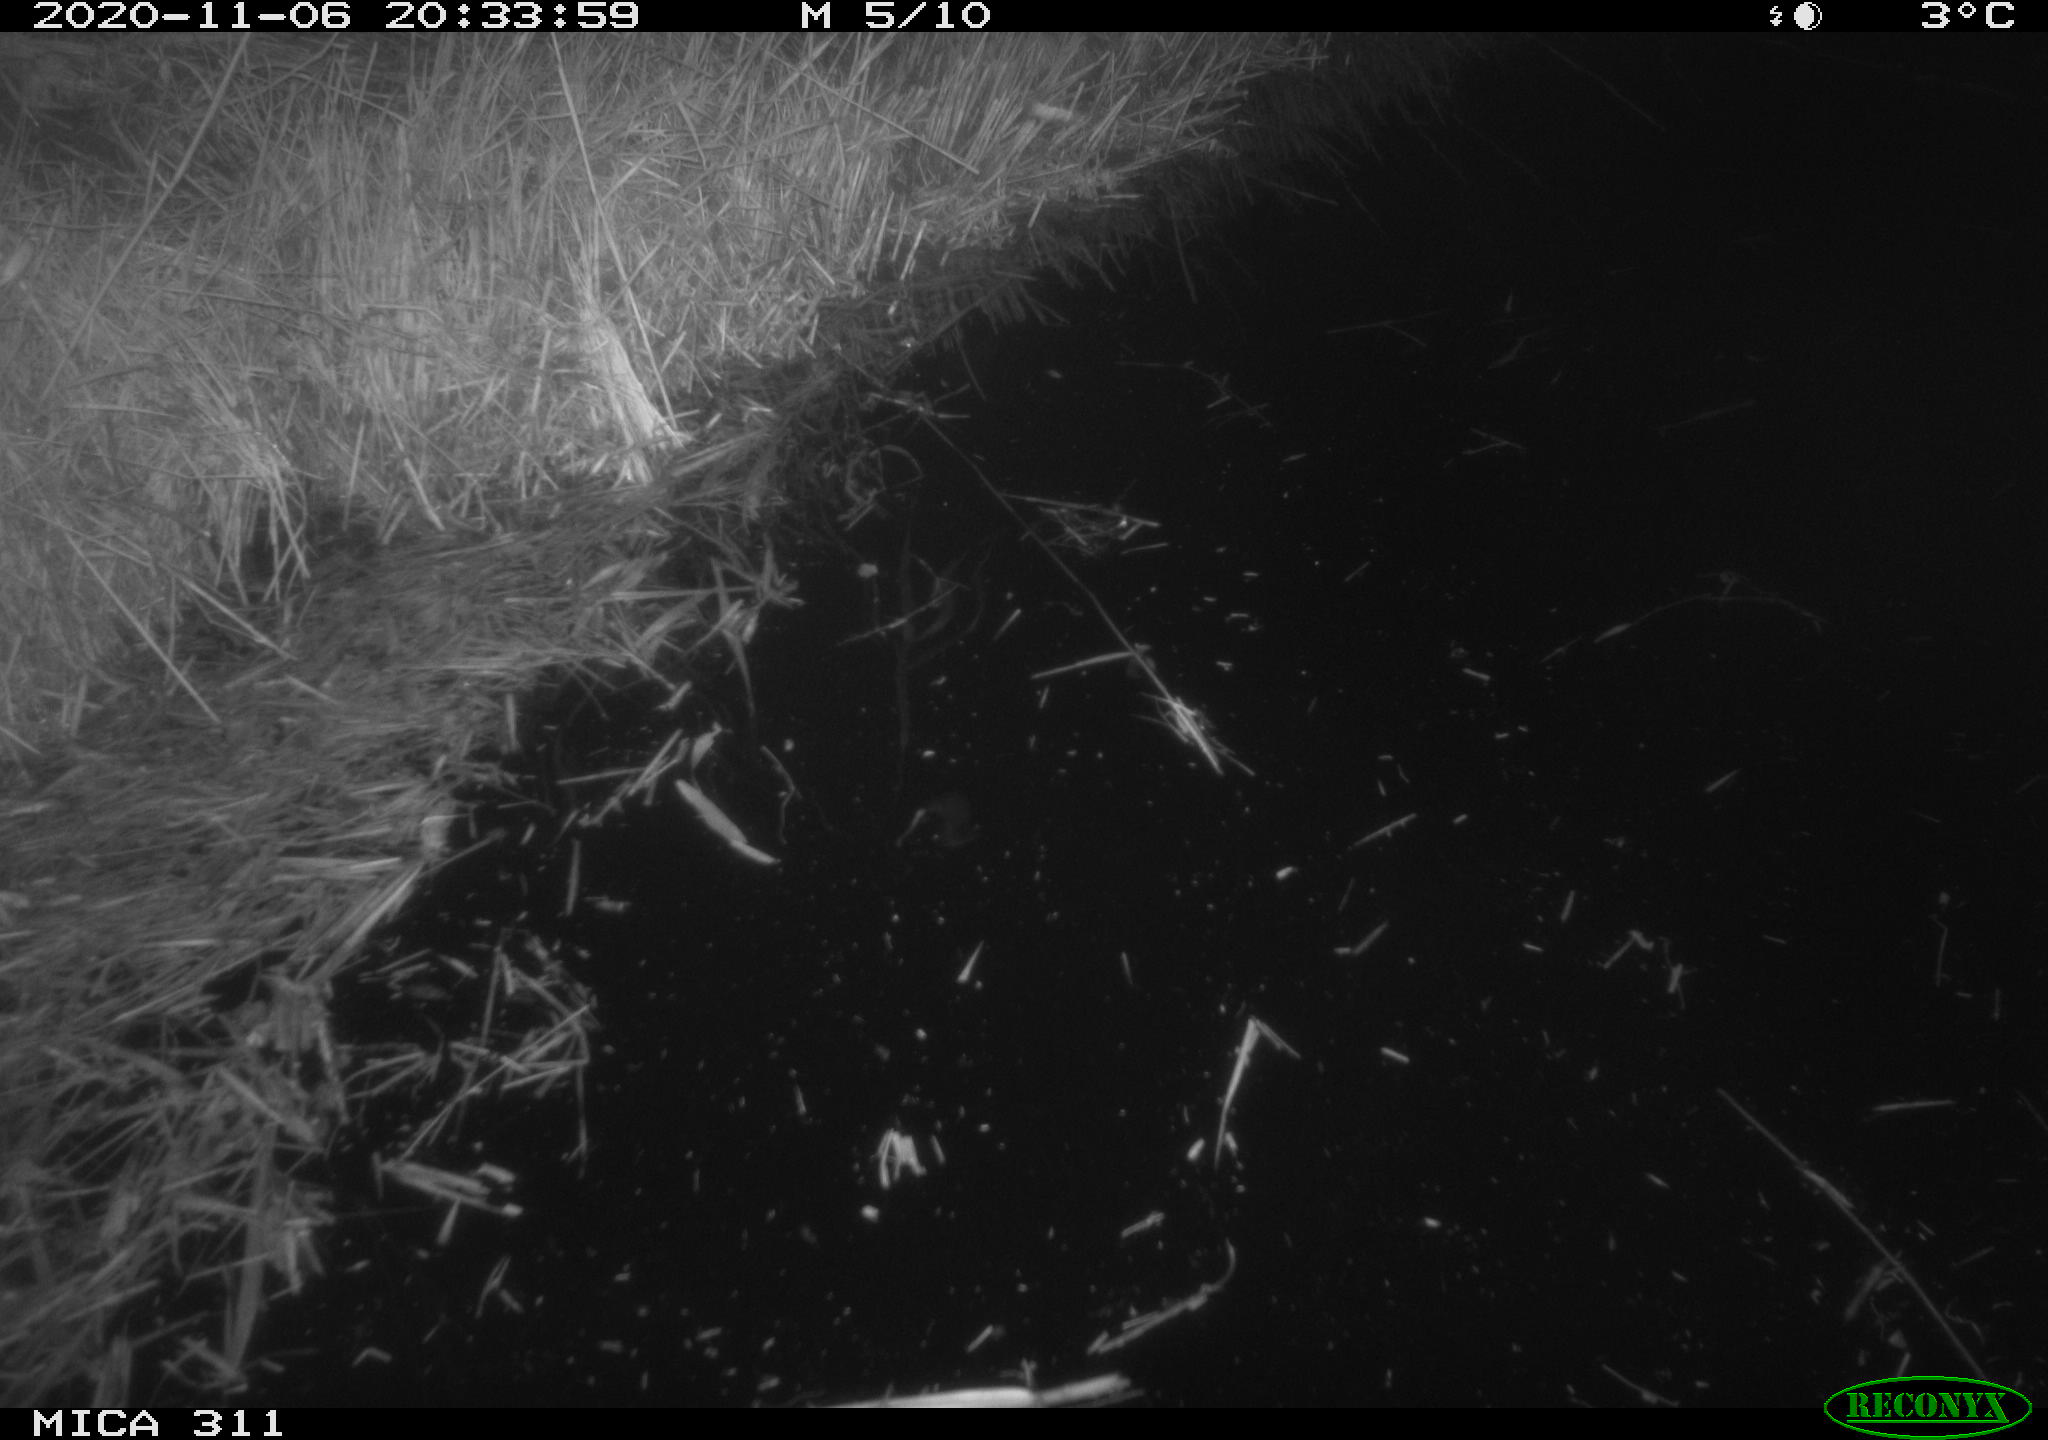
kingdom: Animalia
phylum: Chordata
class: Mammalia
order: Rodentia
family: Muridae
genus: Rattus
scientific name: Rattus norvegicus
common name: Brown rat
